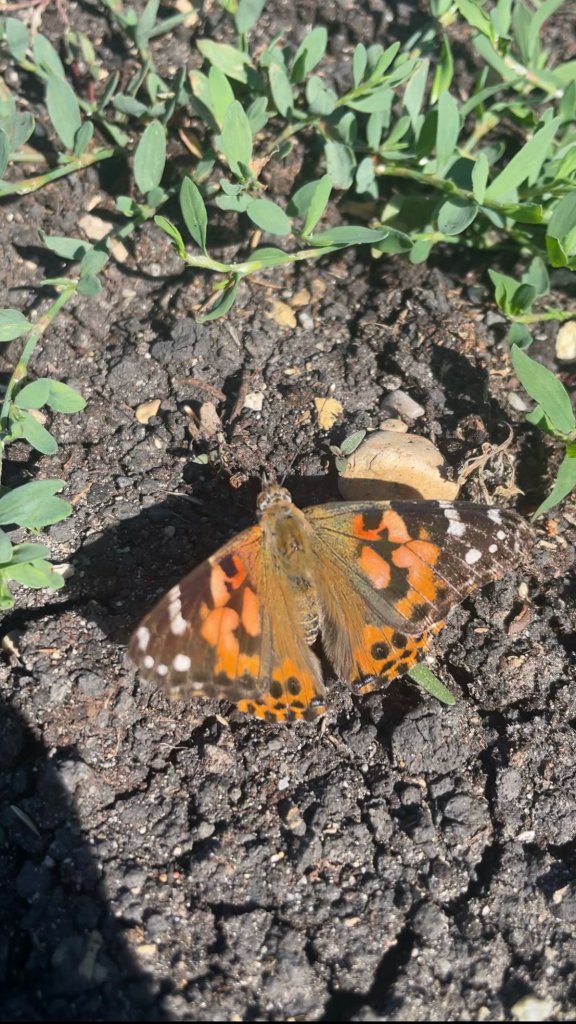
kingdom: Animalia
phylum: Arthropoda
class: Insecta
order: Lepidoptera
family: Nymphalidae
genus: Vanessa
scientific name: Vanessa cardui
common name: Painted Lady
